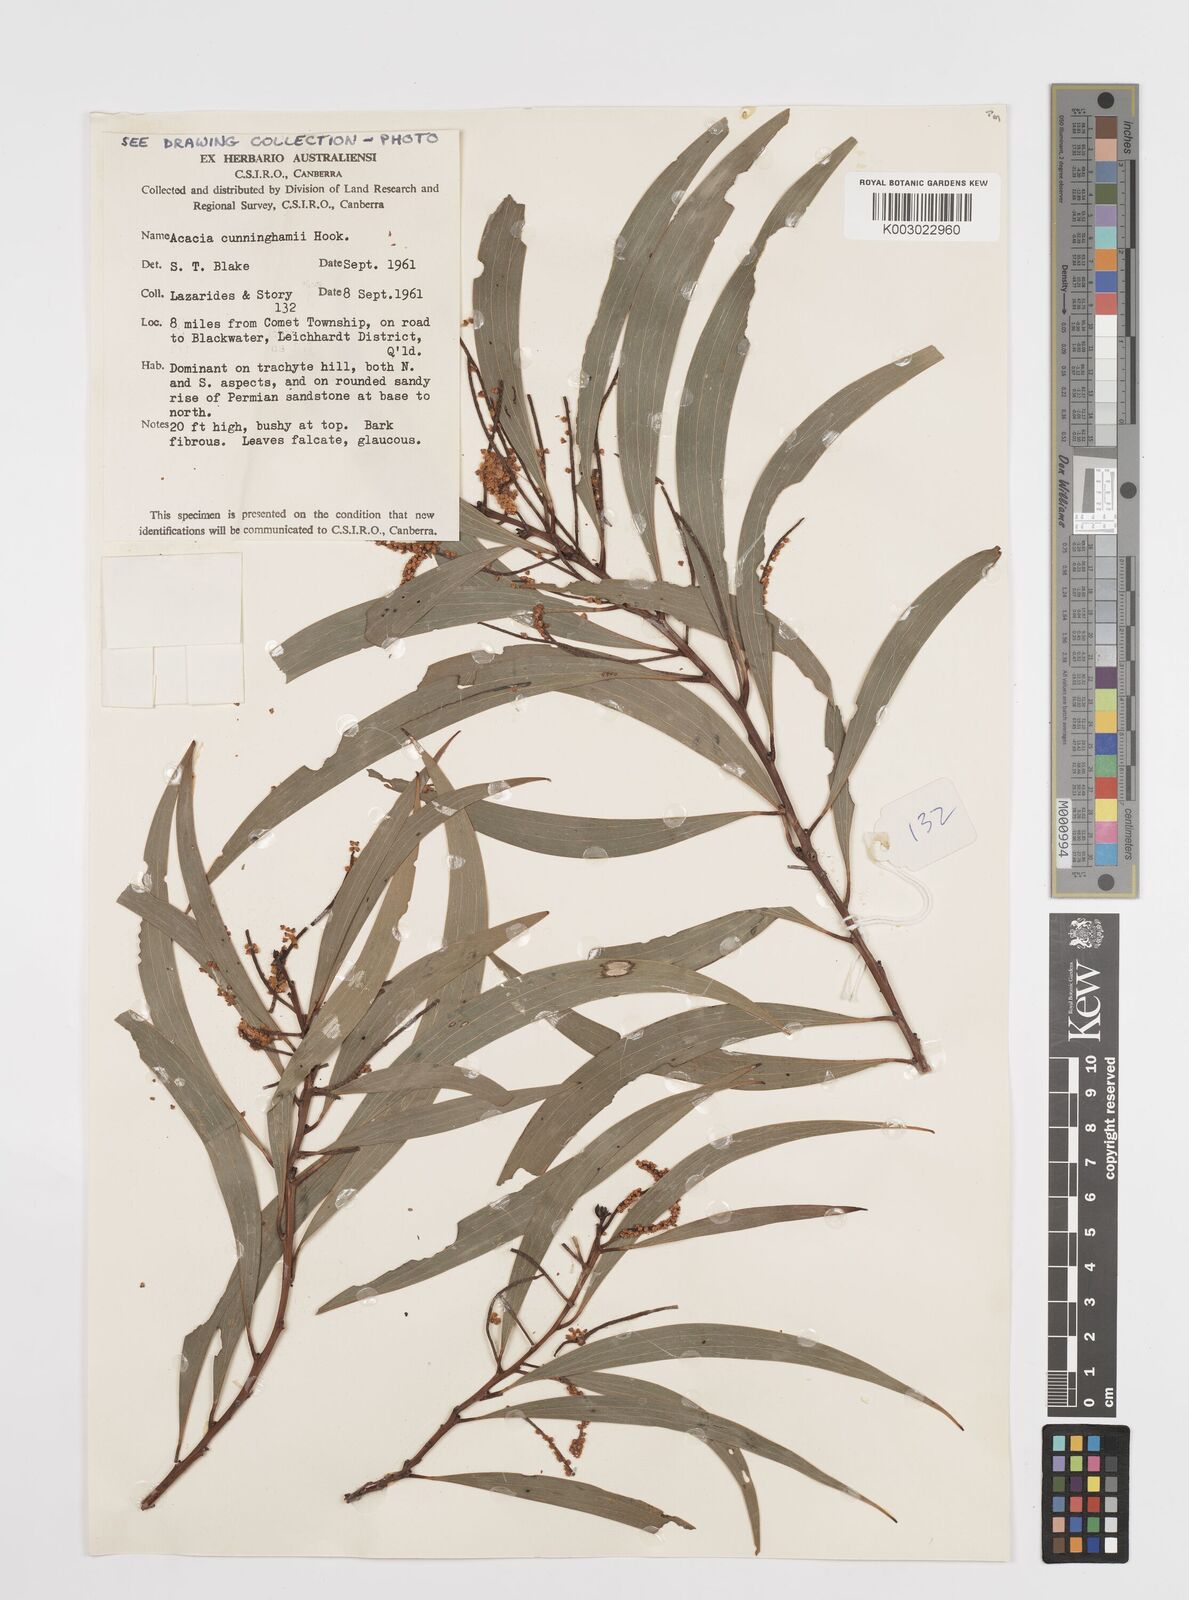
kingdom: Plantae
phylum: Tracheophyta
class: Magnoliopsida
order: Fabales
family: Fabaceae
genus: Acacia
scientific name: Acacia longispicata
